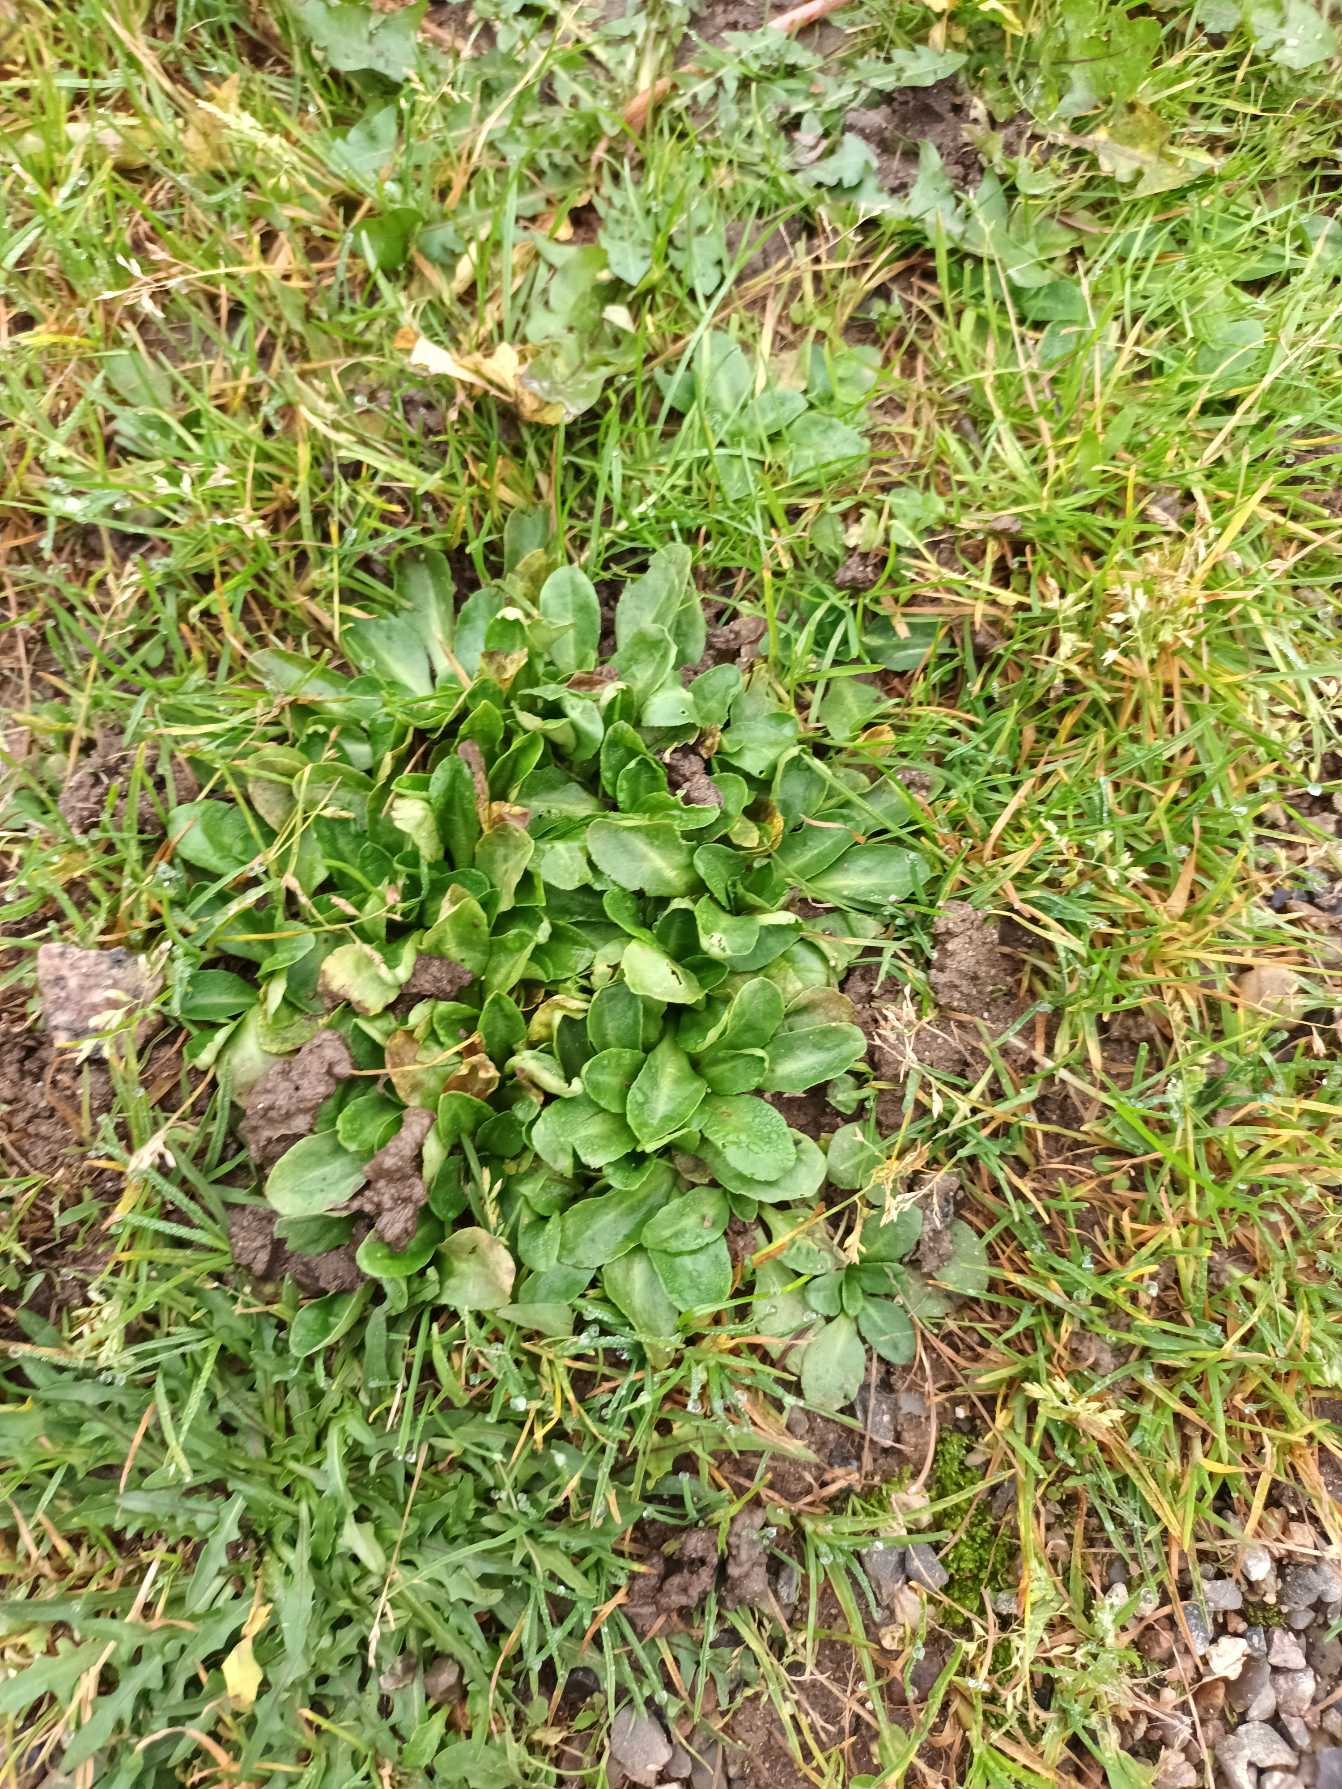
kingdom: Plantae
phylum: Tracheophyta
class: Magnoliopsida
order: Asterales
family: Asteraceae
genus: Bellis
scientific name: Bellis perennis
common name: Tusindfryd
